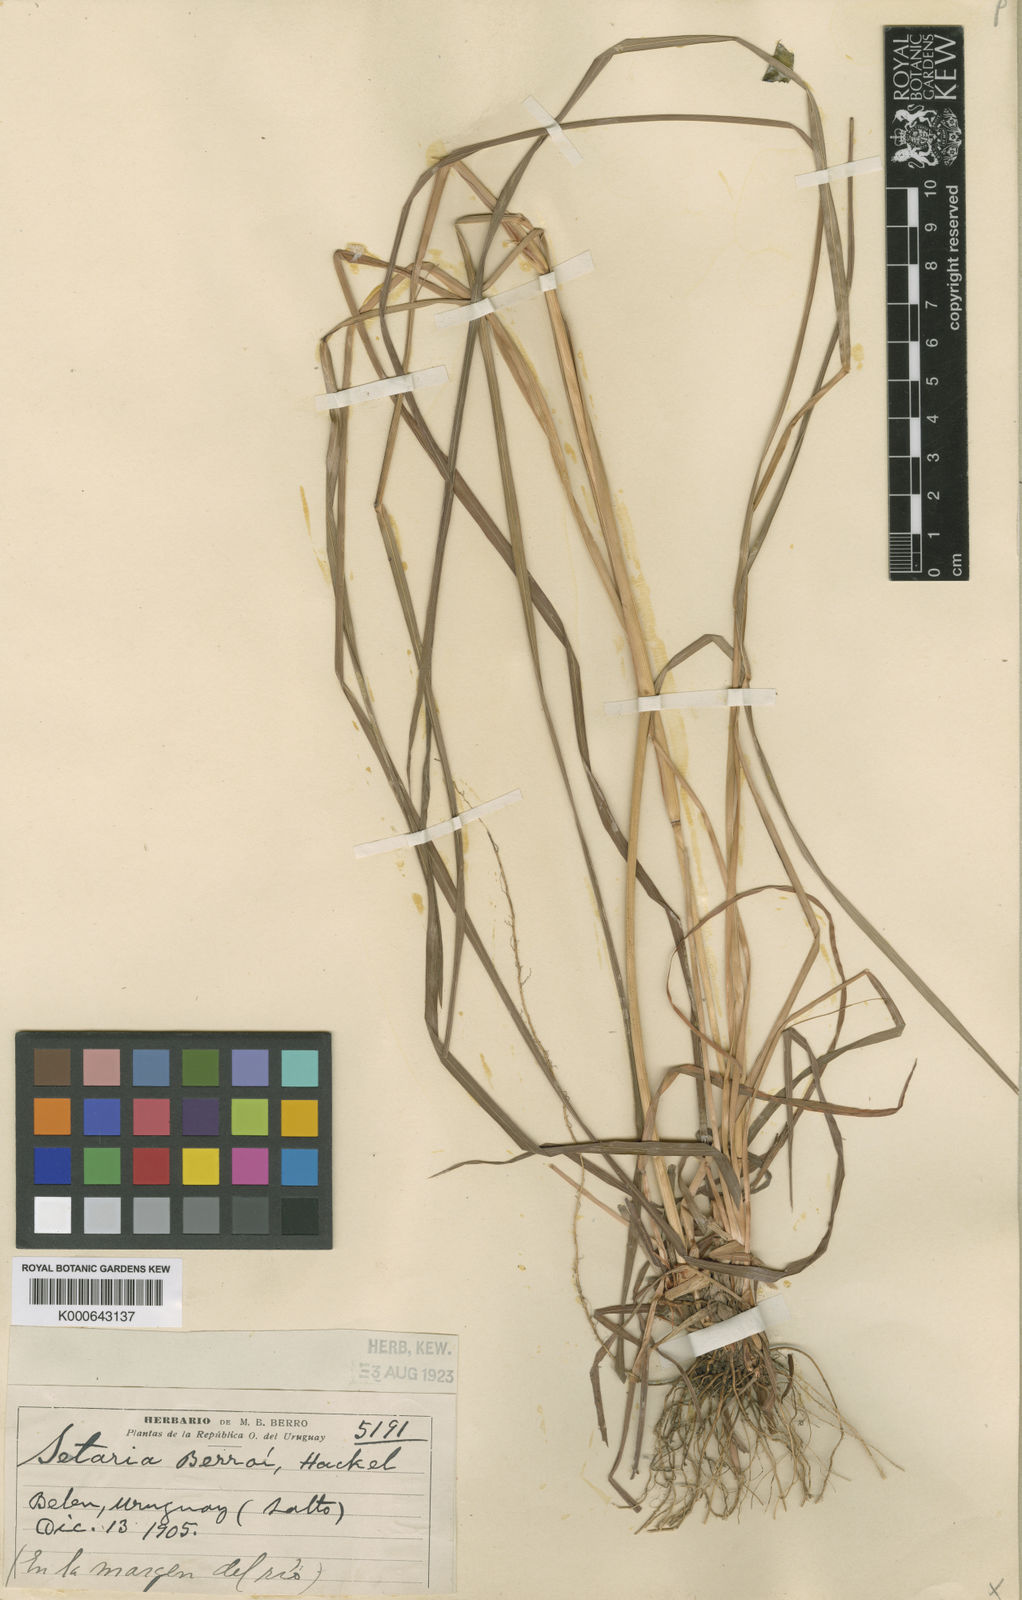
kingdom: Plantae
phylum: Tracheophyta
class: Liliopsida
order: Poales
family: Poaceae
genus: Setaria
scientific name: Setaria globulifera
